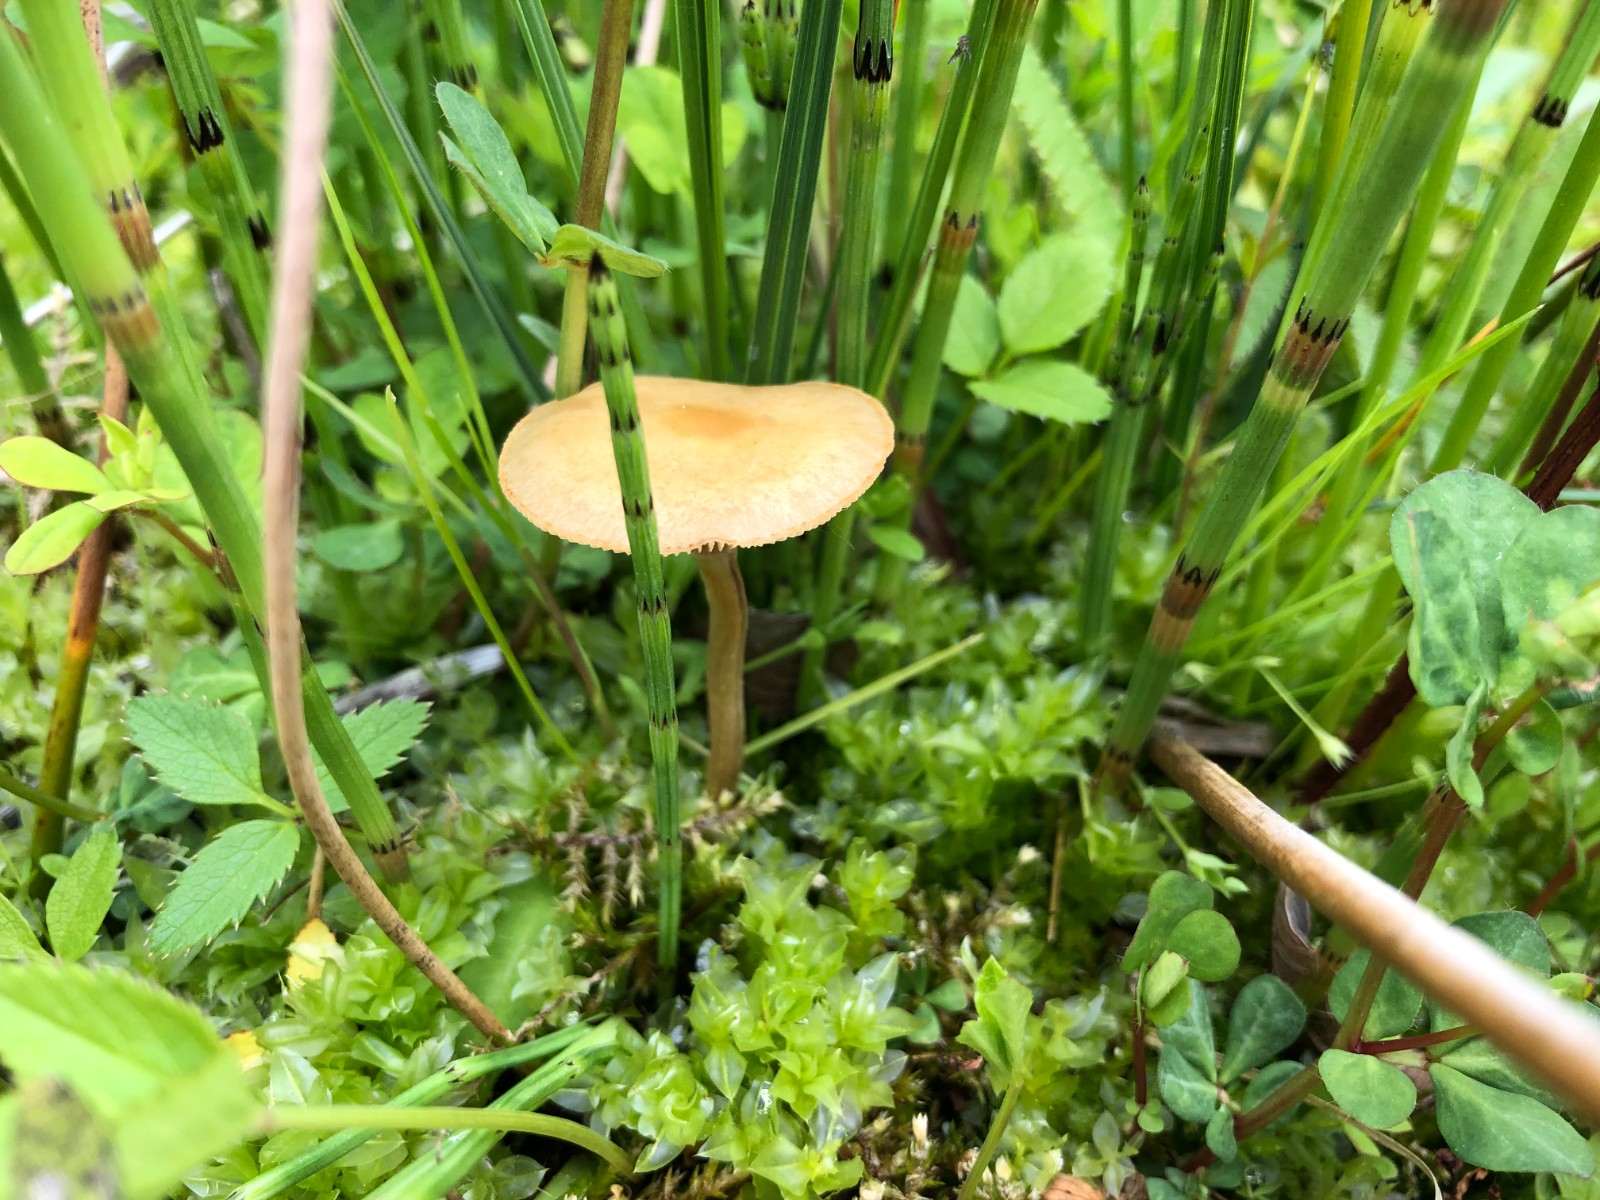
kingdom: Fungi
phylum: Basidiomycota
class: Agaricomycetes
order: Agaricales
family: Strophariaceae
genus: Agrocybe
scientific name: Agrocybe elatella
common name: mose-agerhat
